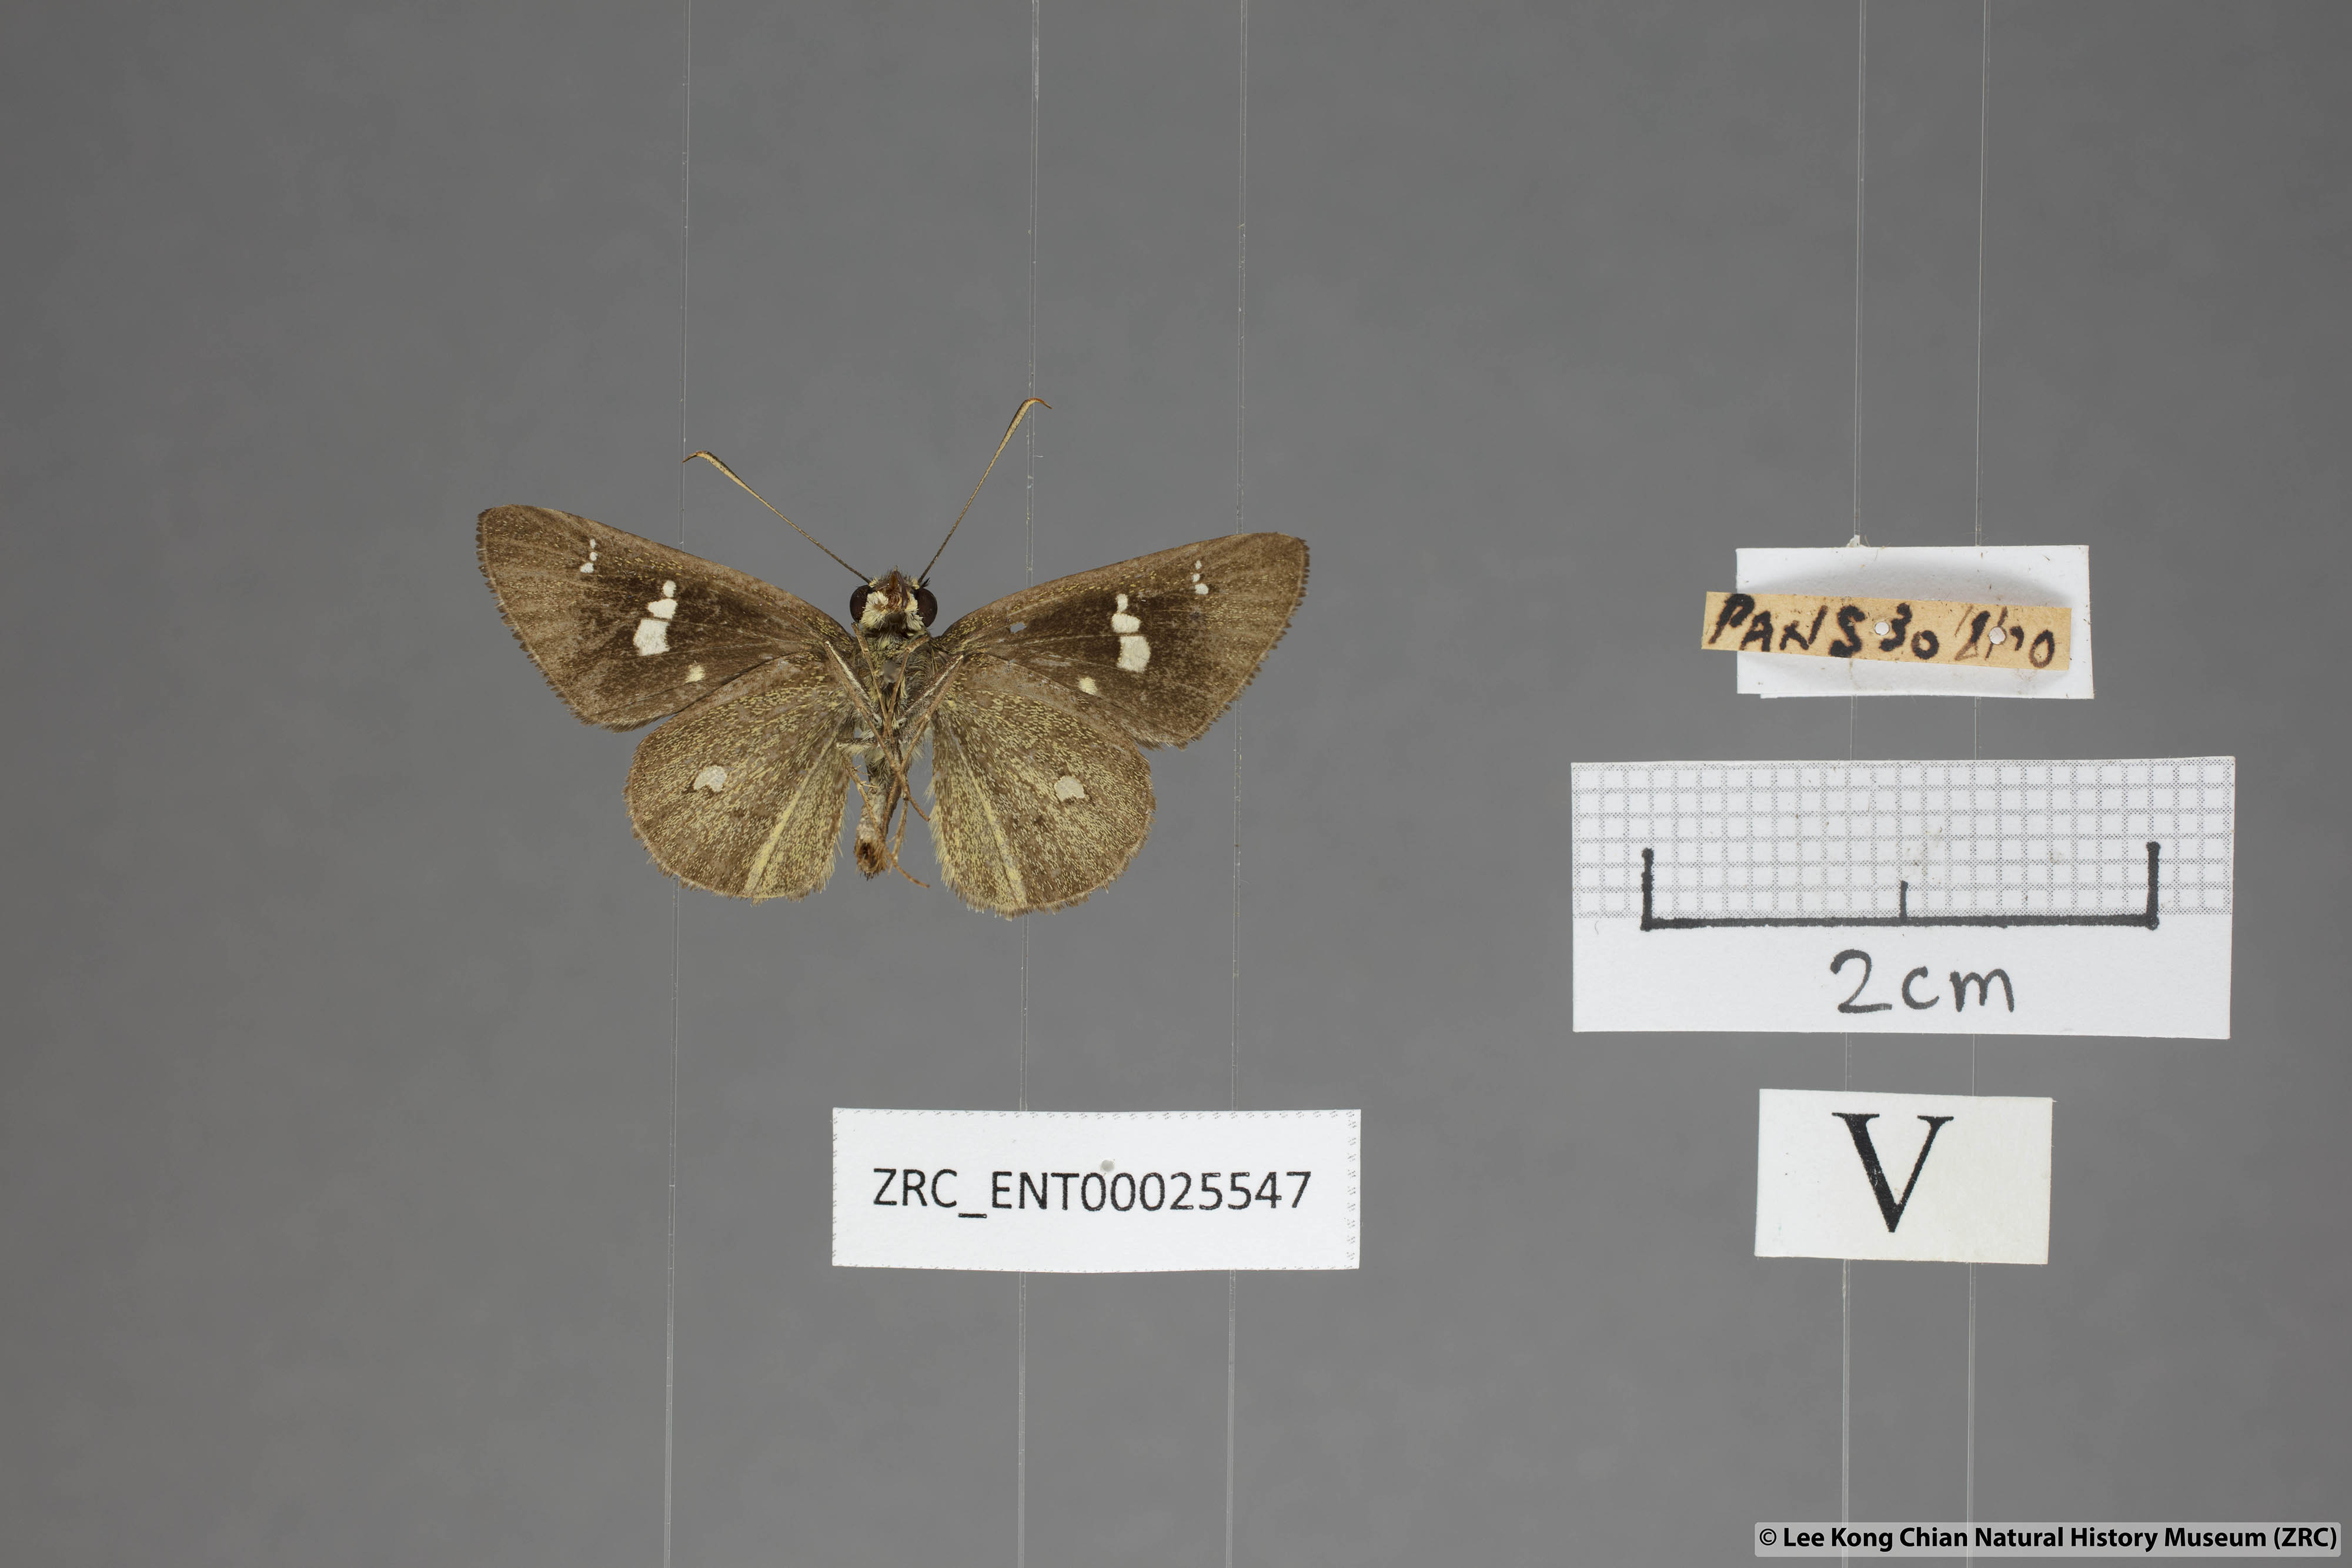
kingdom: Animalia
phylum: Arthropoda
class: Insecta
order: Lepidoptera
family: Hesperiidae
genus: Scobura
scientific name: Scobura phiditia
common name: Malay forest bob
